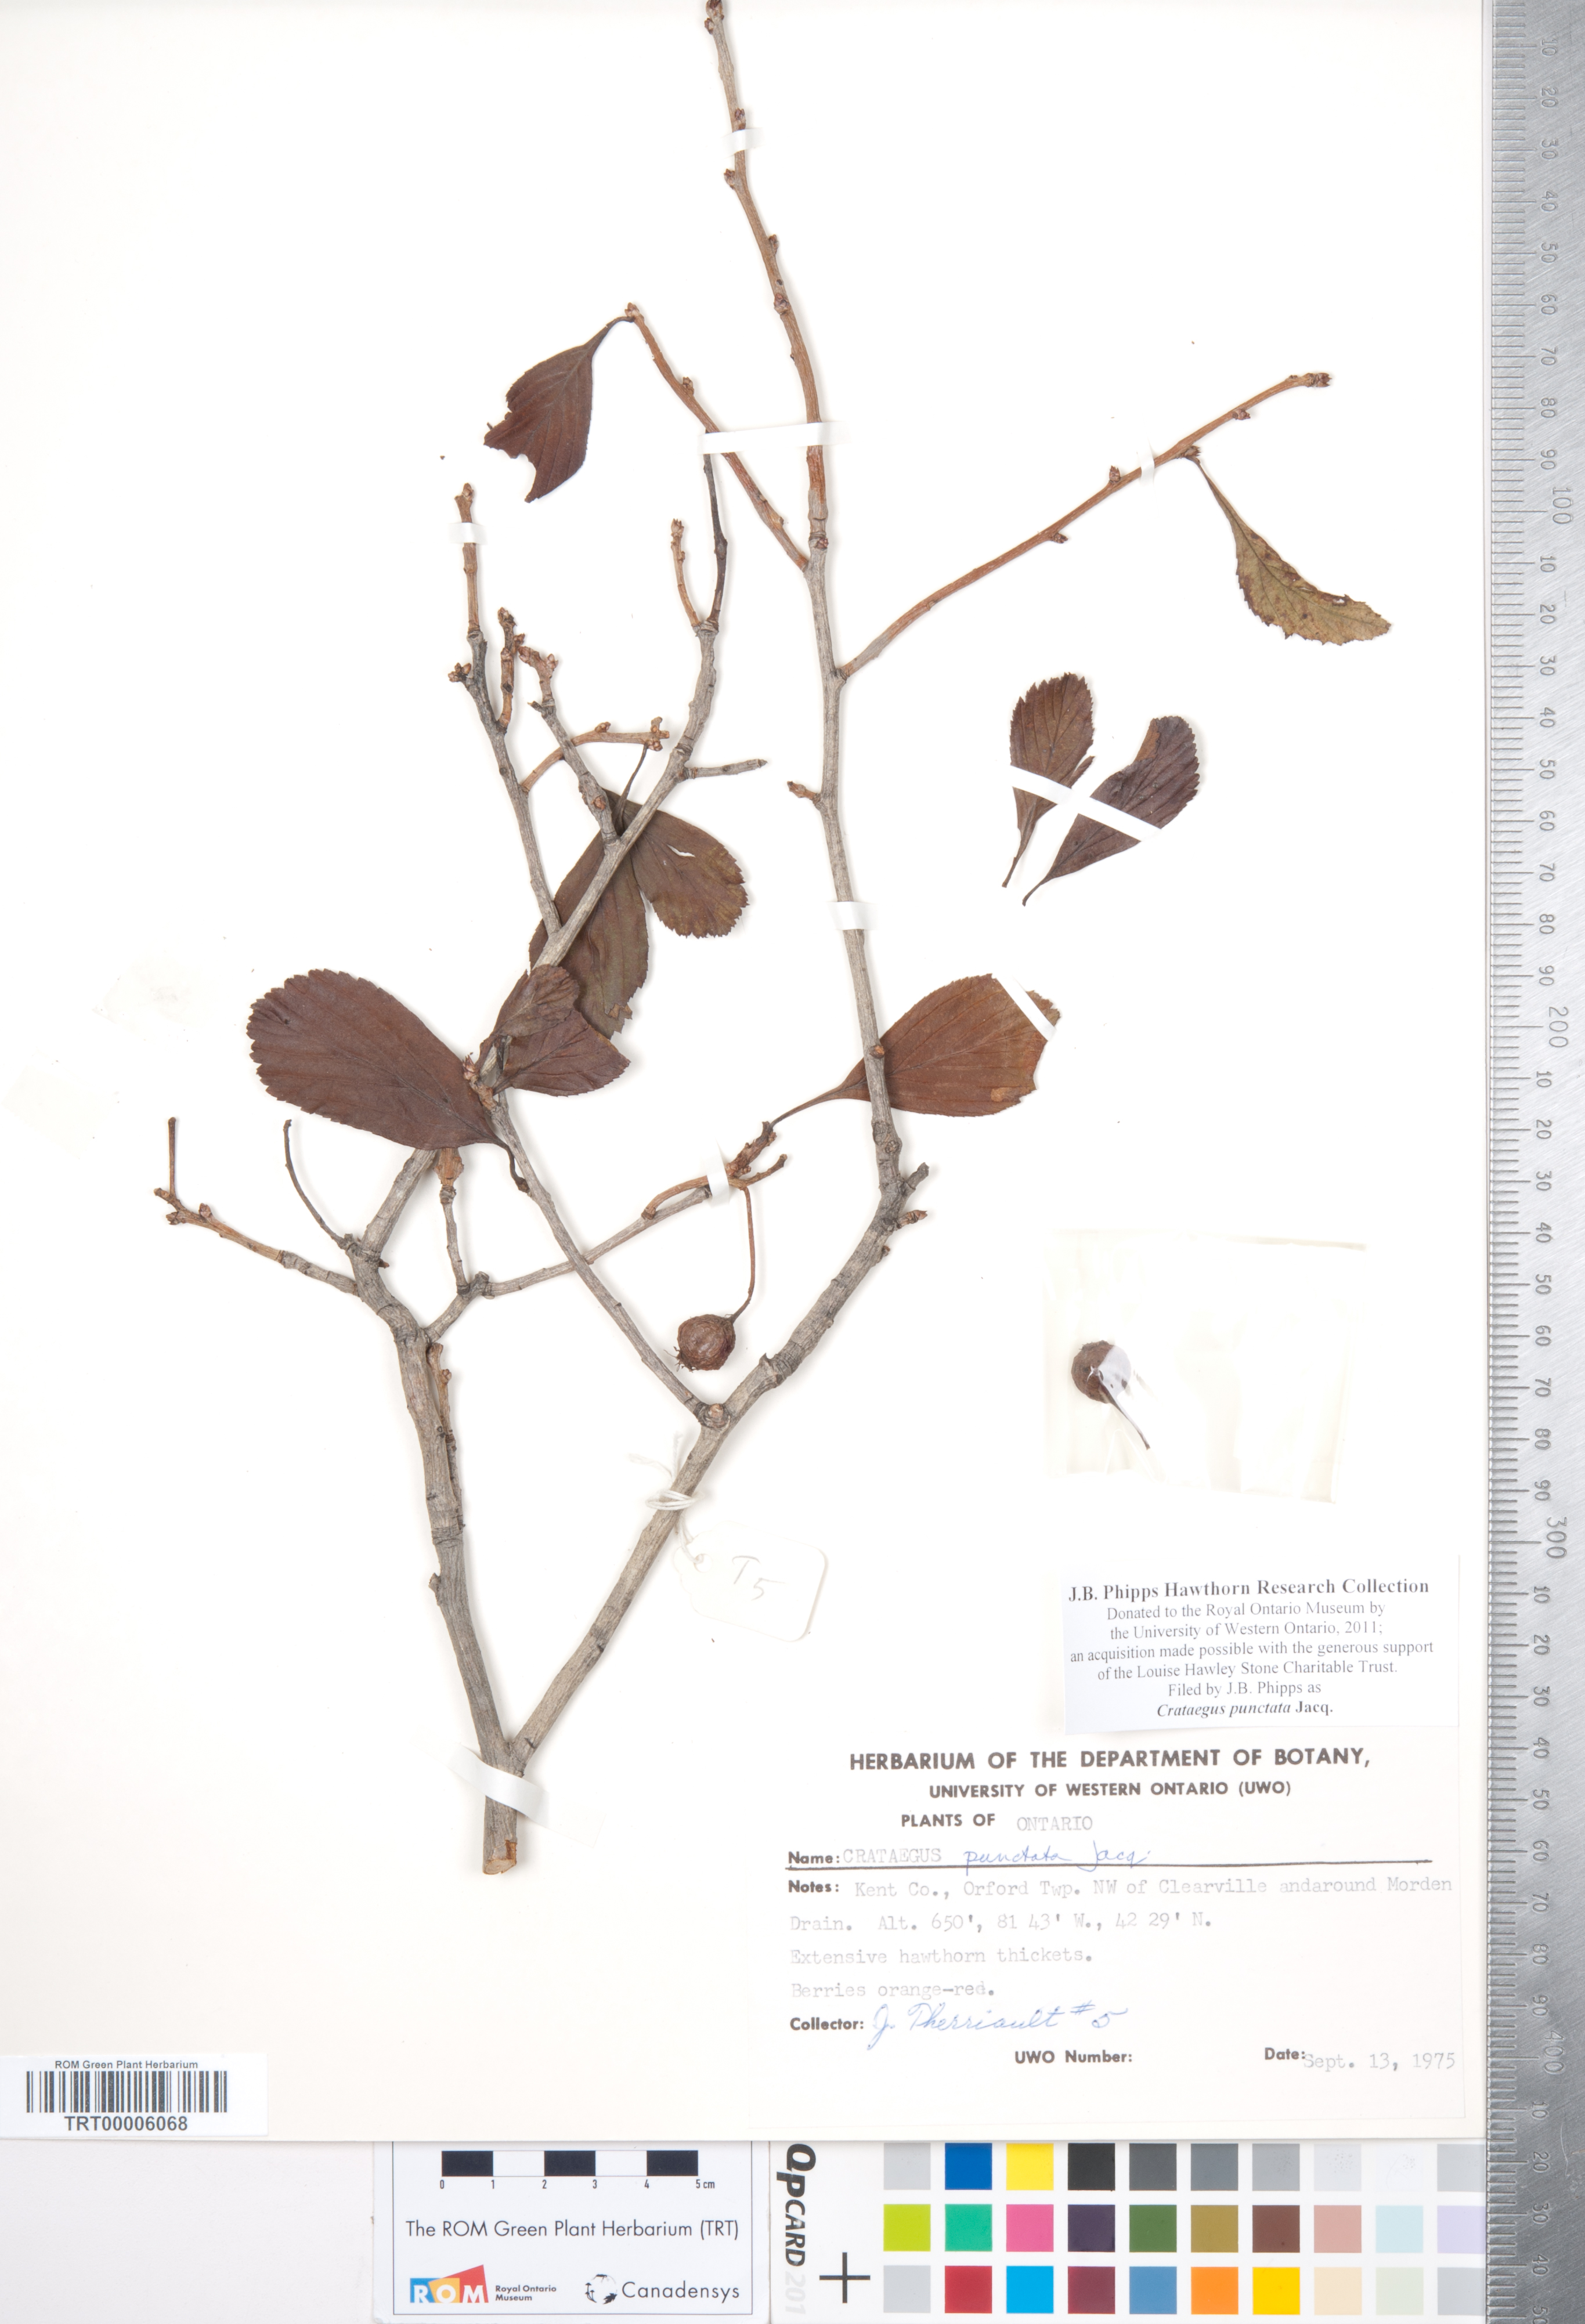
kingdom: Plantae
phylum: Tracheophyta
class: Magnoliopsida
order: Rosales
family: Rosaceae
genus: Crataegus
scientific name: Crataegus punctata
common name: Dotted hawthorn
